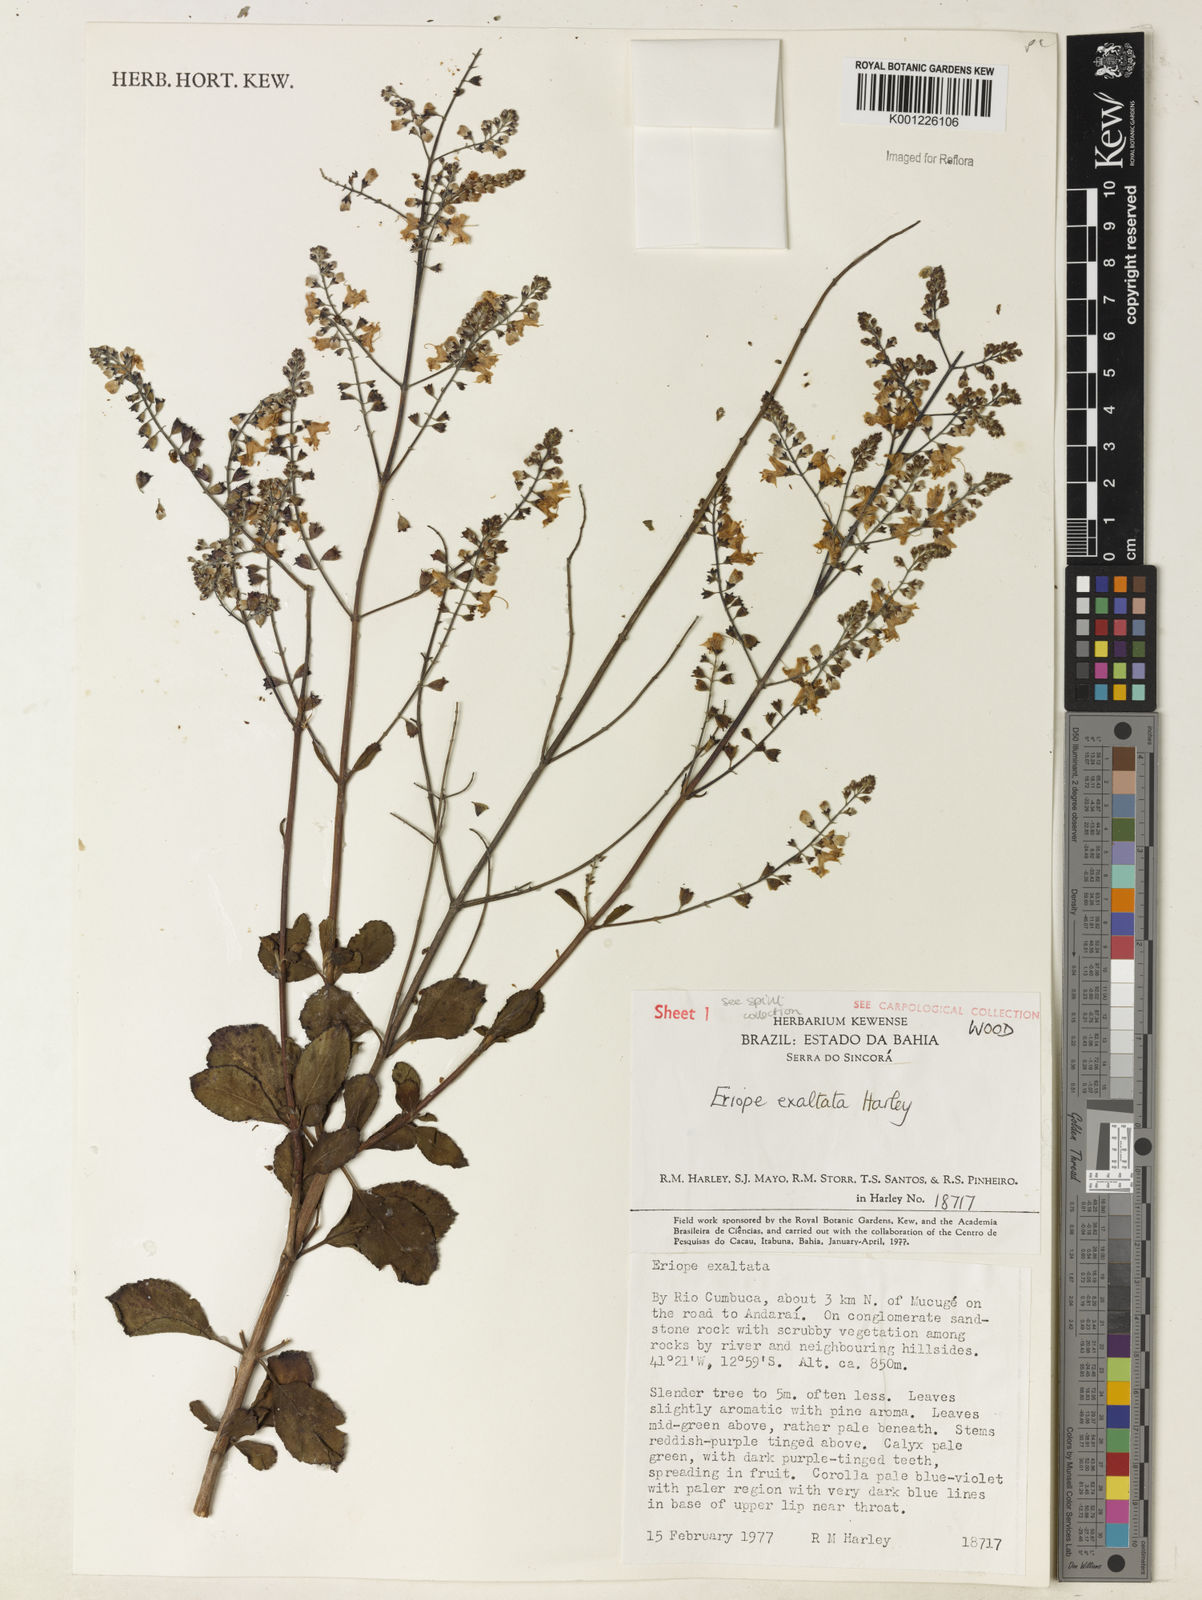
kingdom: Plantae
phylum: Tracheophyta
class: Magnoliopsida
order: Lamiales
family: Lamiaceae
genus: Eriope
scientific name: Eriope exaltata
